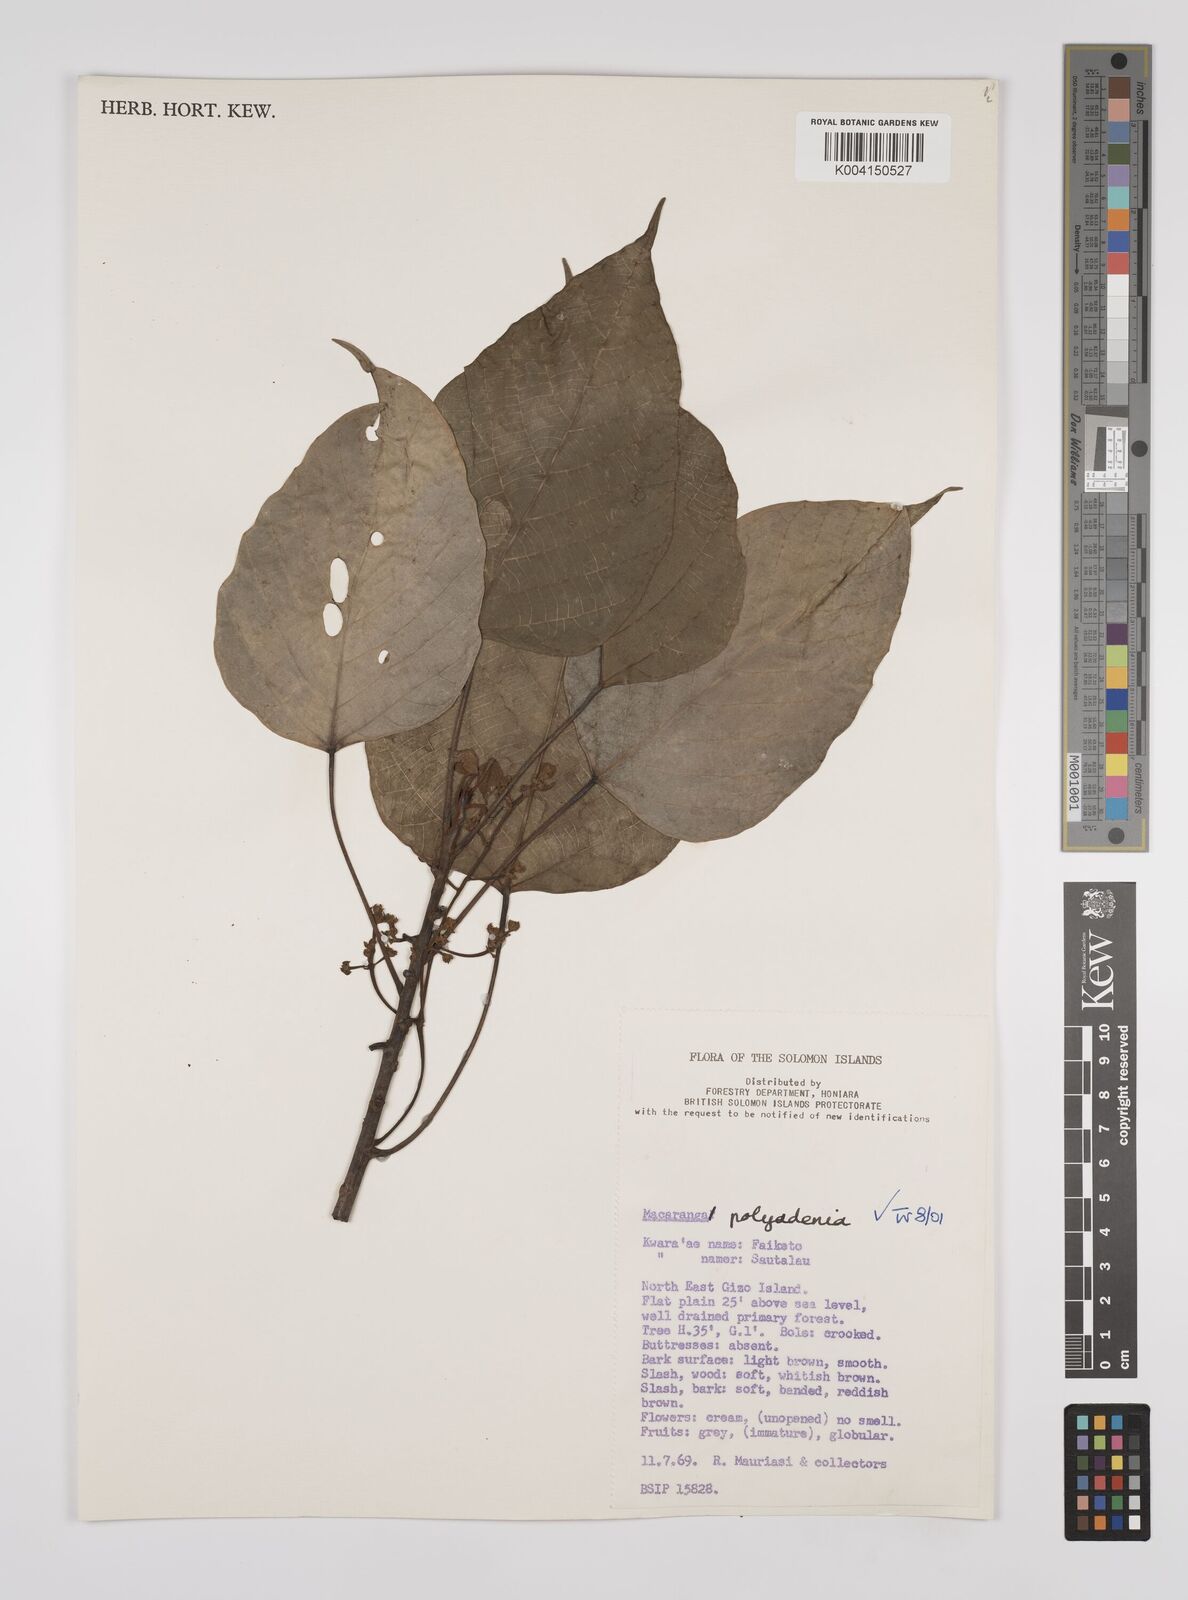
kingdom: Plantae
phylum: Tracheophyta
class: Magnoliopsida
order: Malpighiales
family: Euphorbiaceae
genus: Macaranga
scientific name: Macaranga polyadenia
